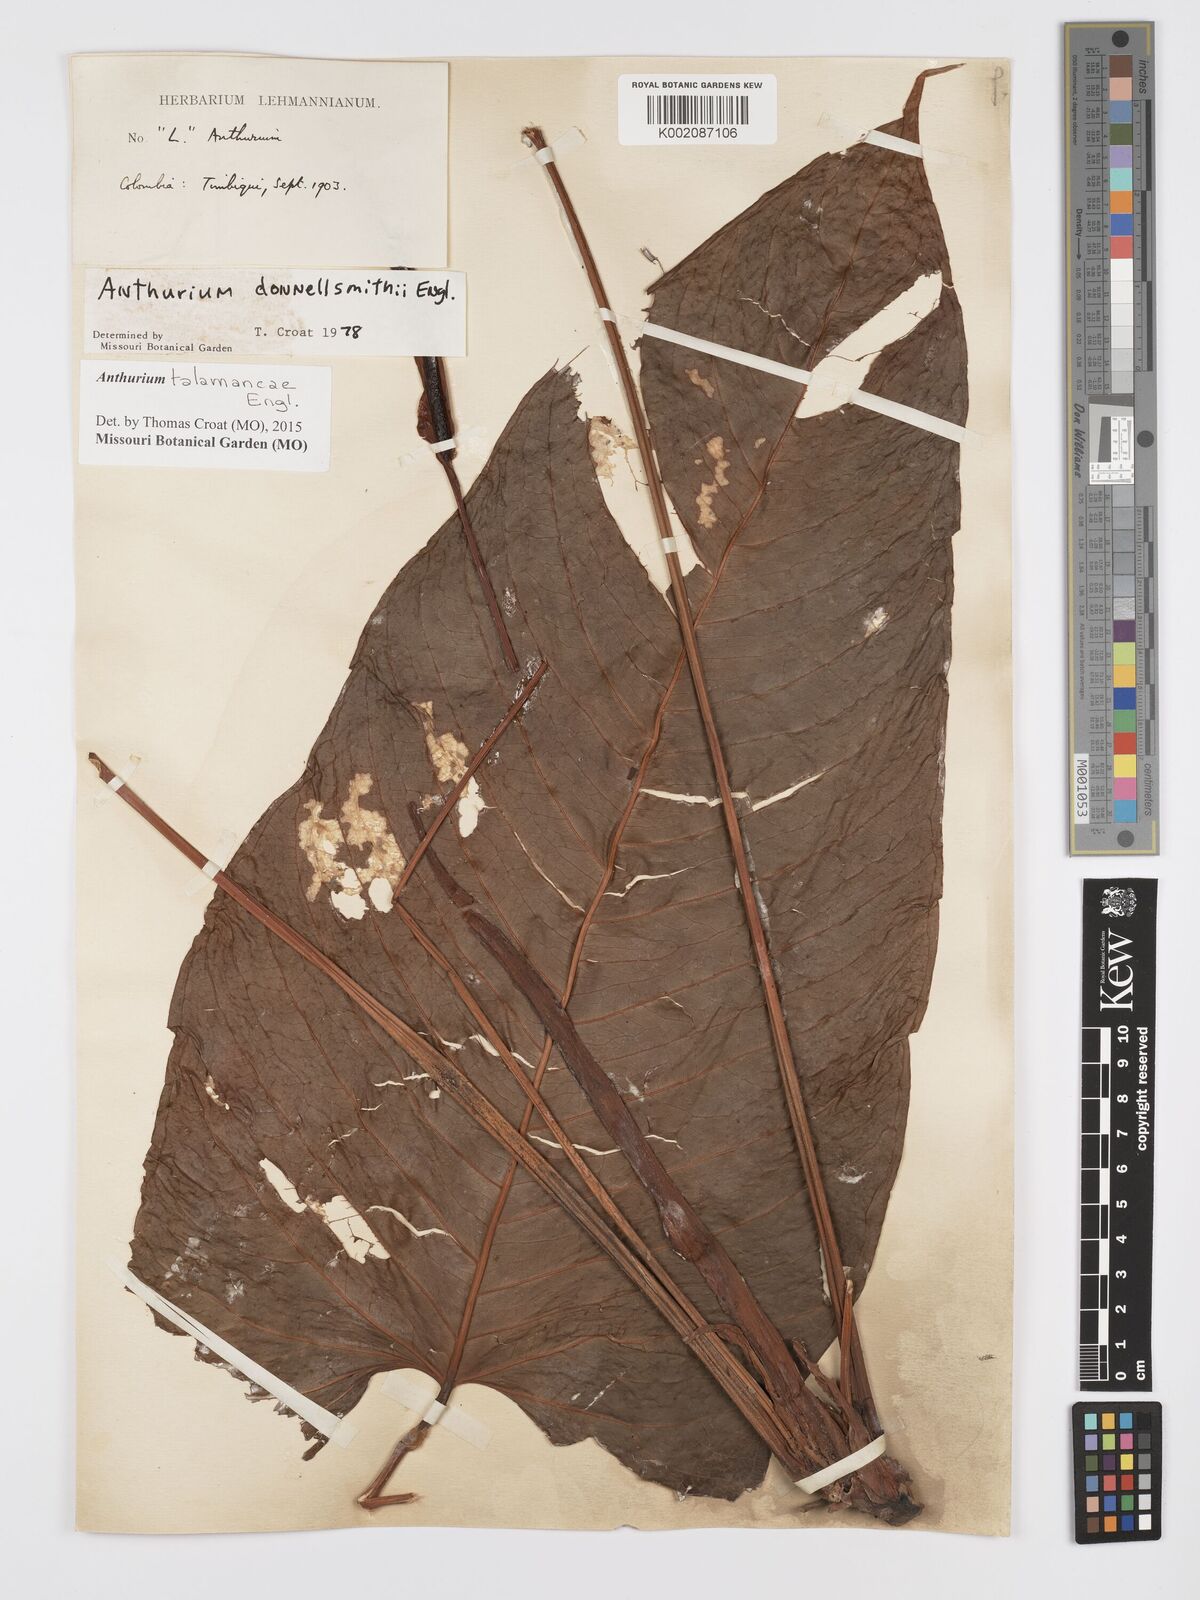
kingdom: Plantae
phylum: Tracheophyta
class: Liliopsida
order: Alismatales
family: Araceae
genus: Anthurium
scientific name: Anthurium talamancae
